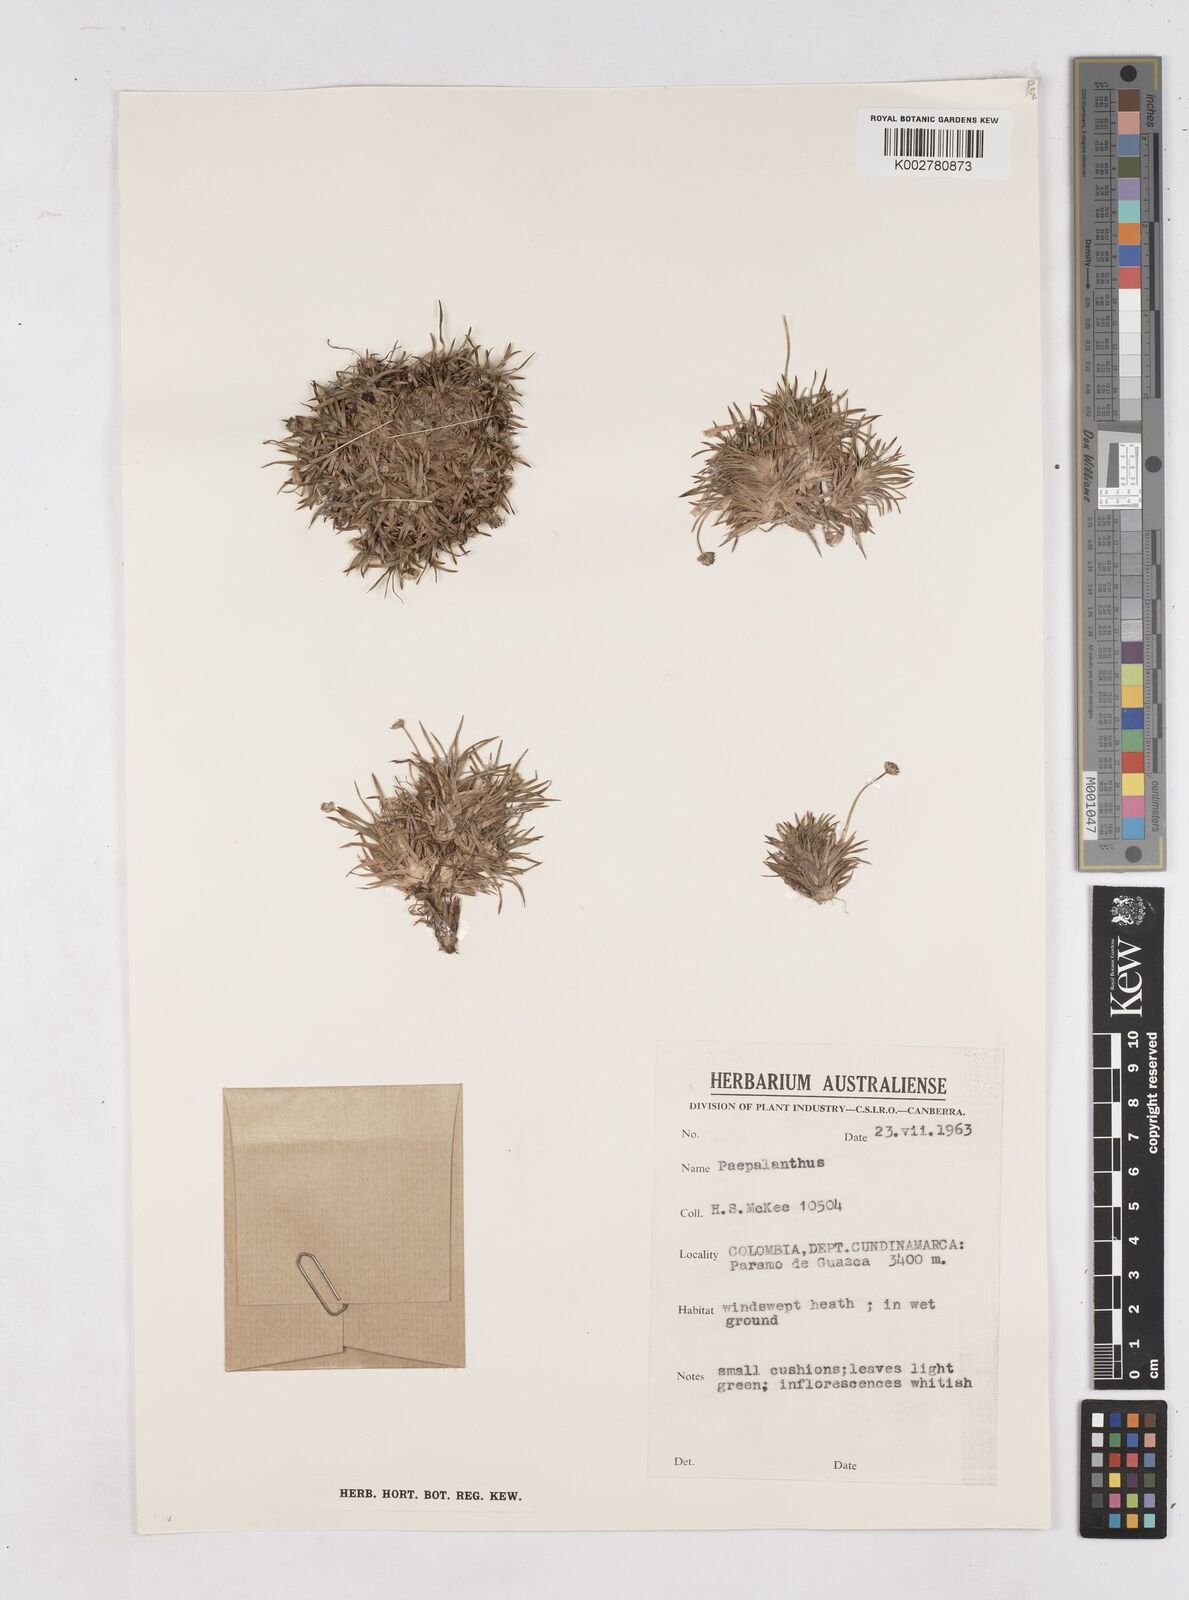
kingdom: Plantae
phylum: Tracheophyta
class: Liliopsida
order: Poales
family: Eriocaulaceae
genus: Paepalanthus
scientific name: Paepalanthus
